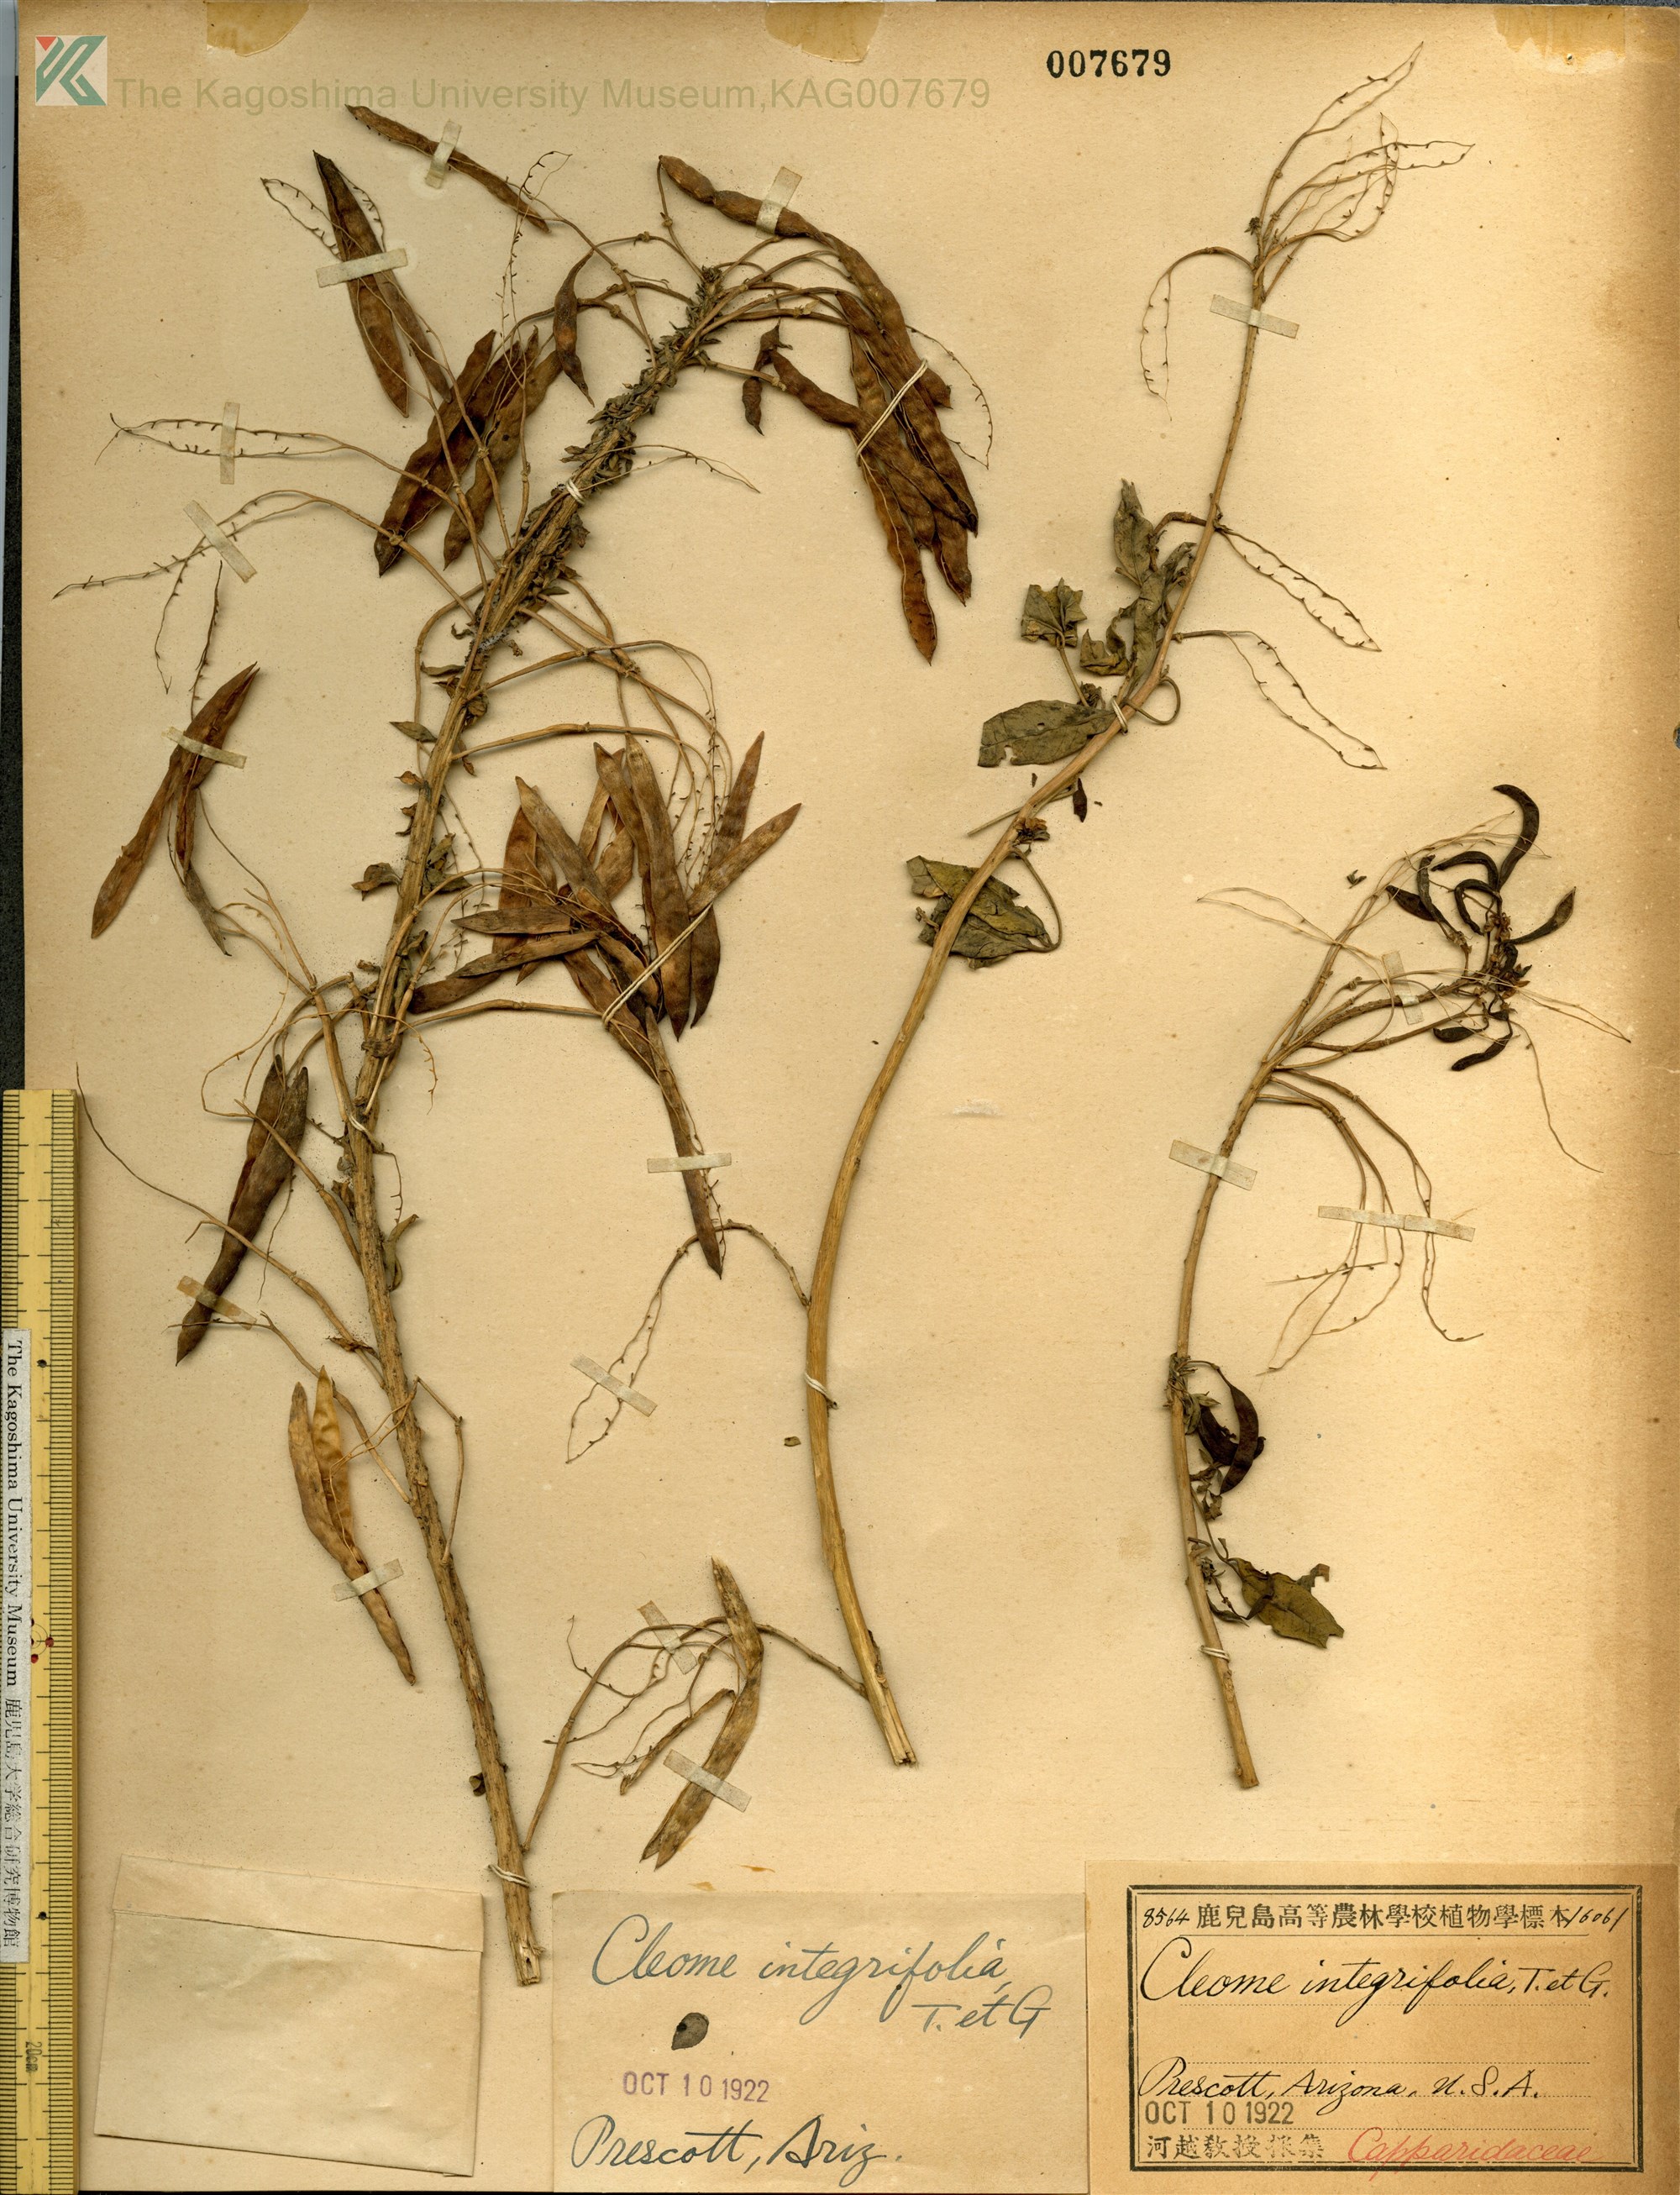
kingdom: Plantae
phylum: Tracheophyta
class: Magnoliopsida
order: Brassicales
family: Cleomaceae
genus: Cleomella
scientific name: Cleomella serrulata
